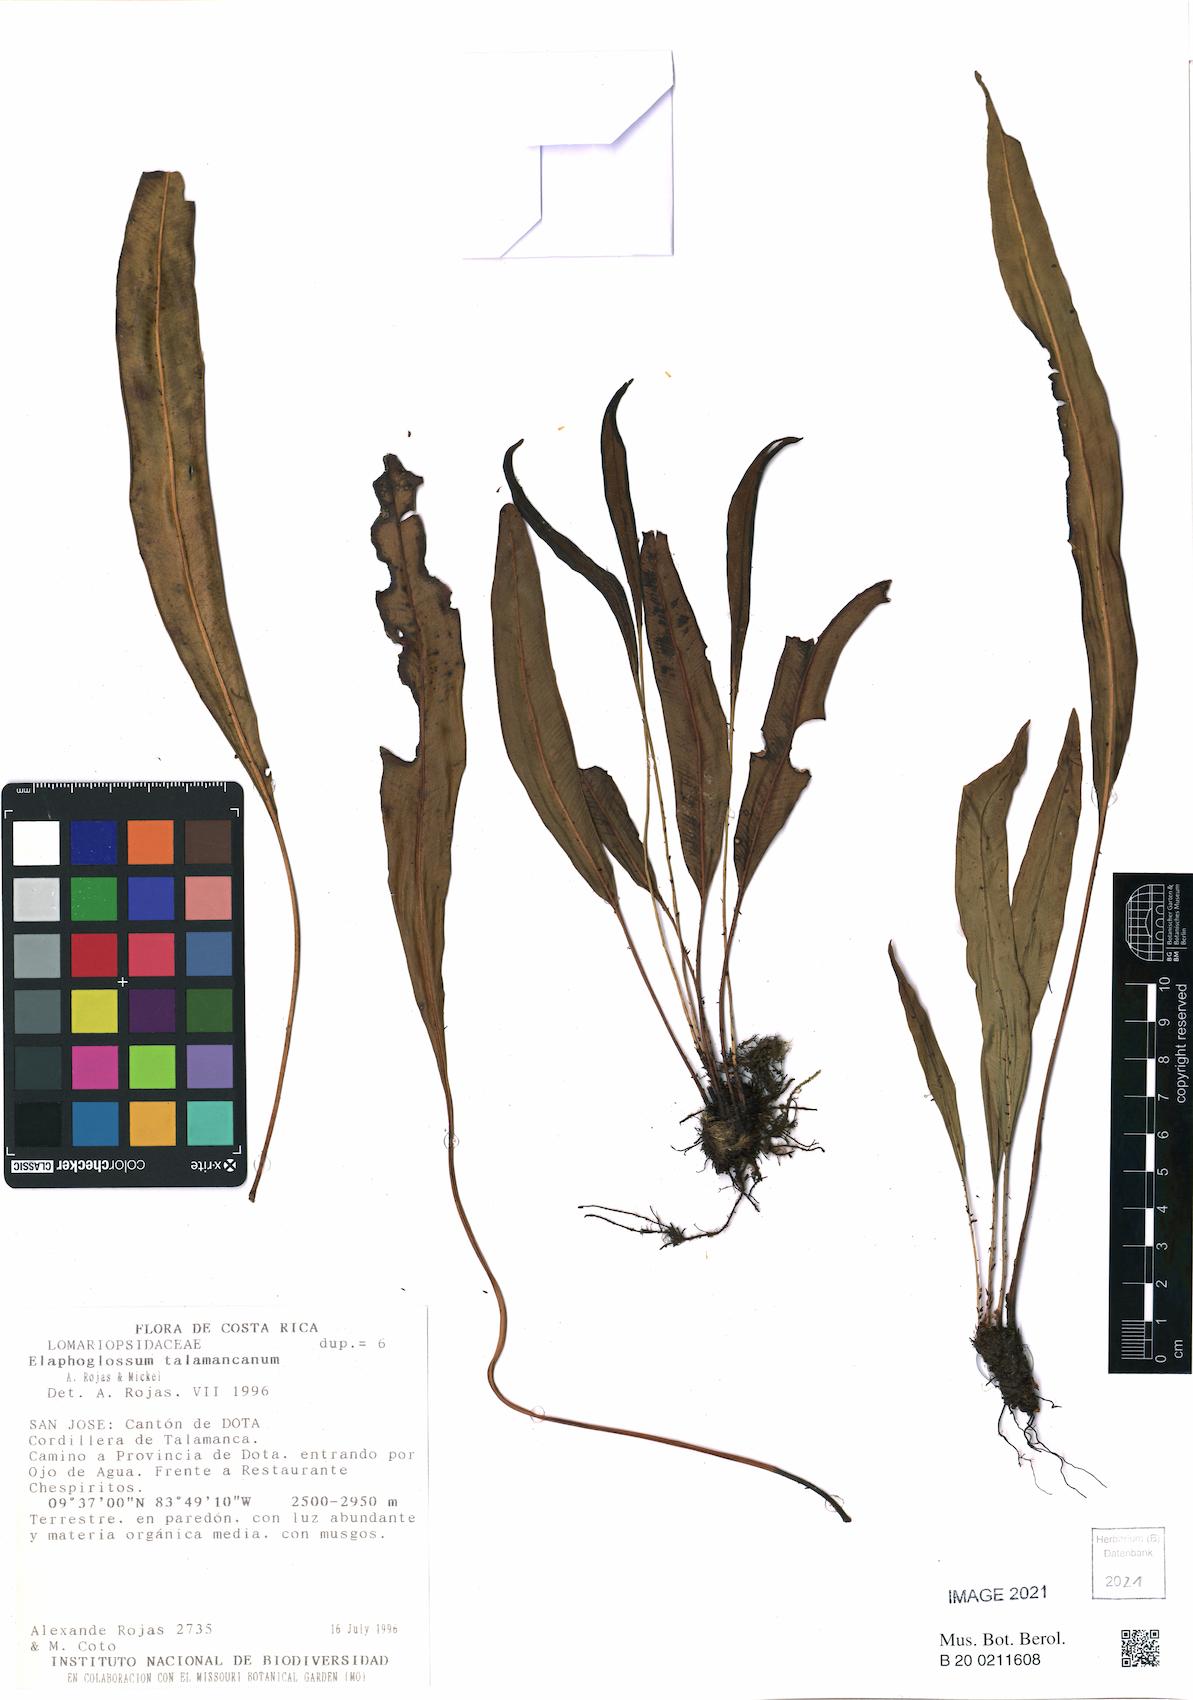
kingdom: Plantae
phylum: Tracheophyta
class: Polypodiopsida
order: Polypodiales
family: Dryopteridaceae
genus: Elaphoglossum
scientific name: Elaphoglossum talamancanum
